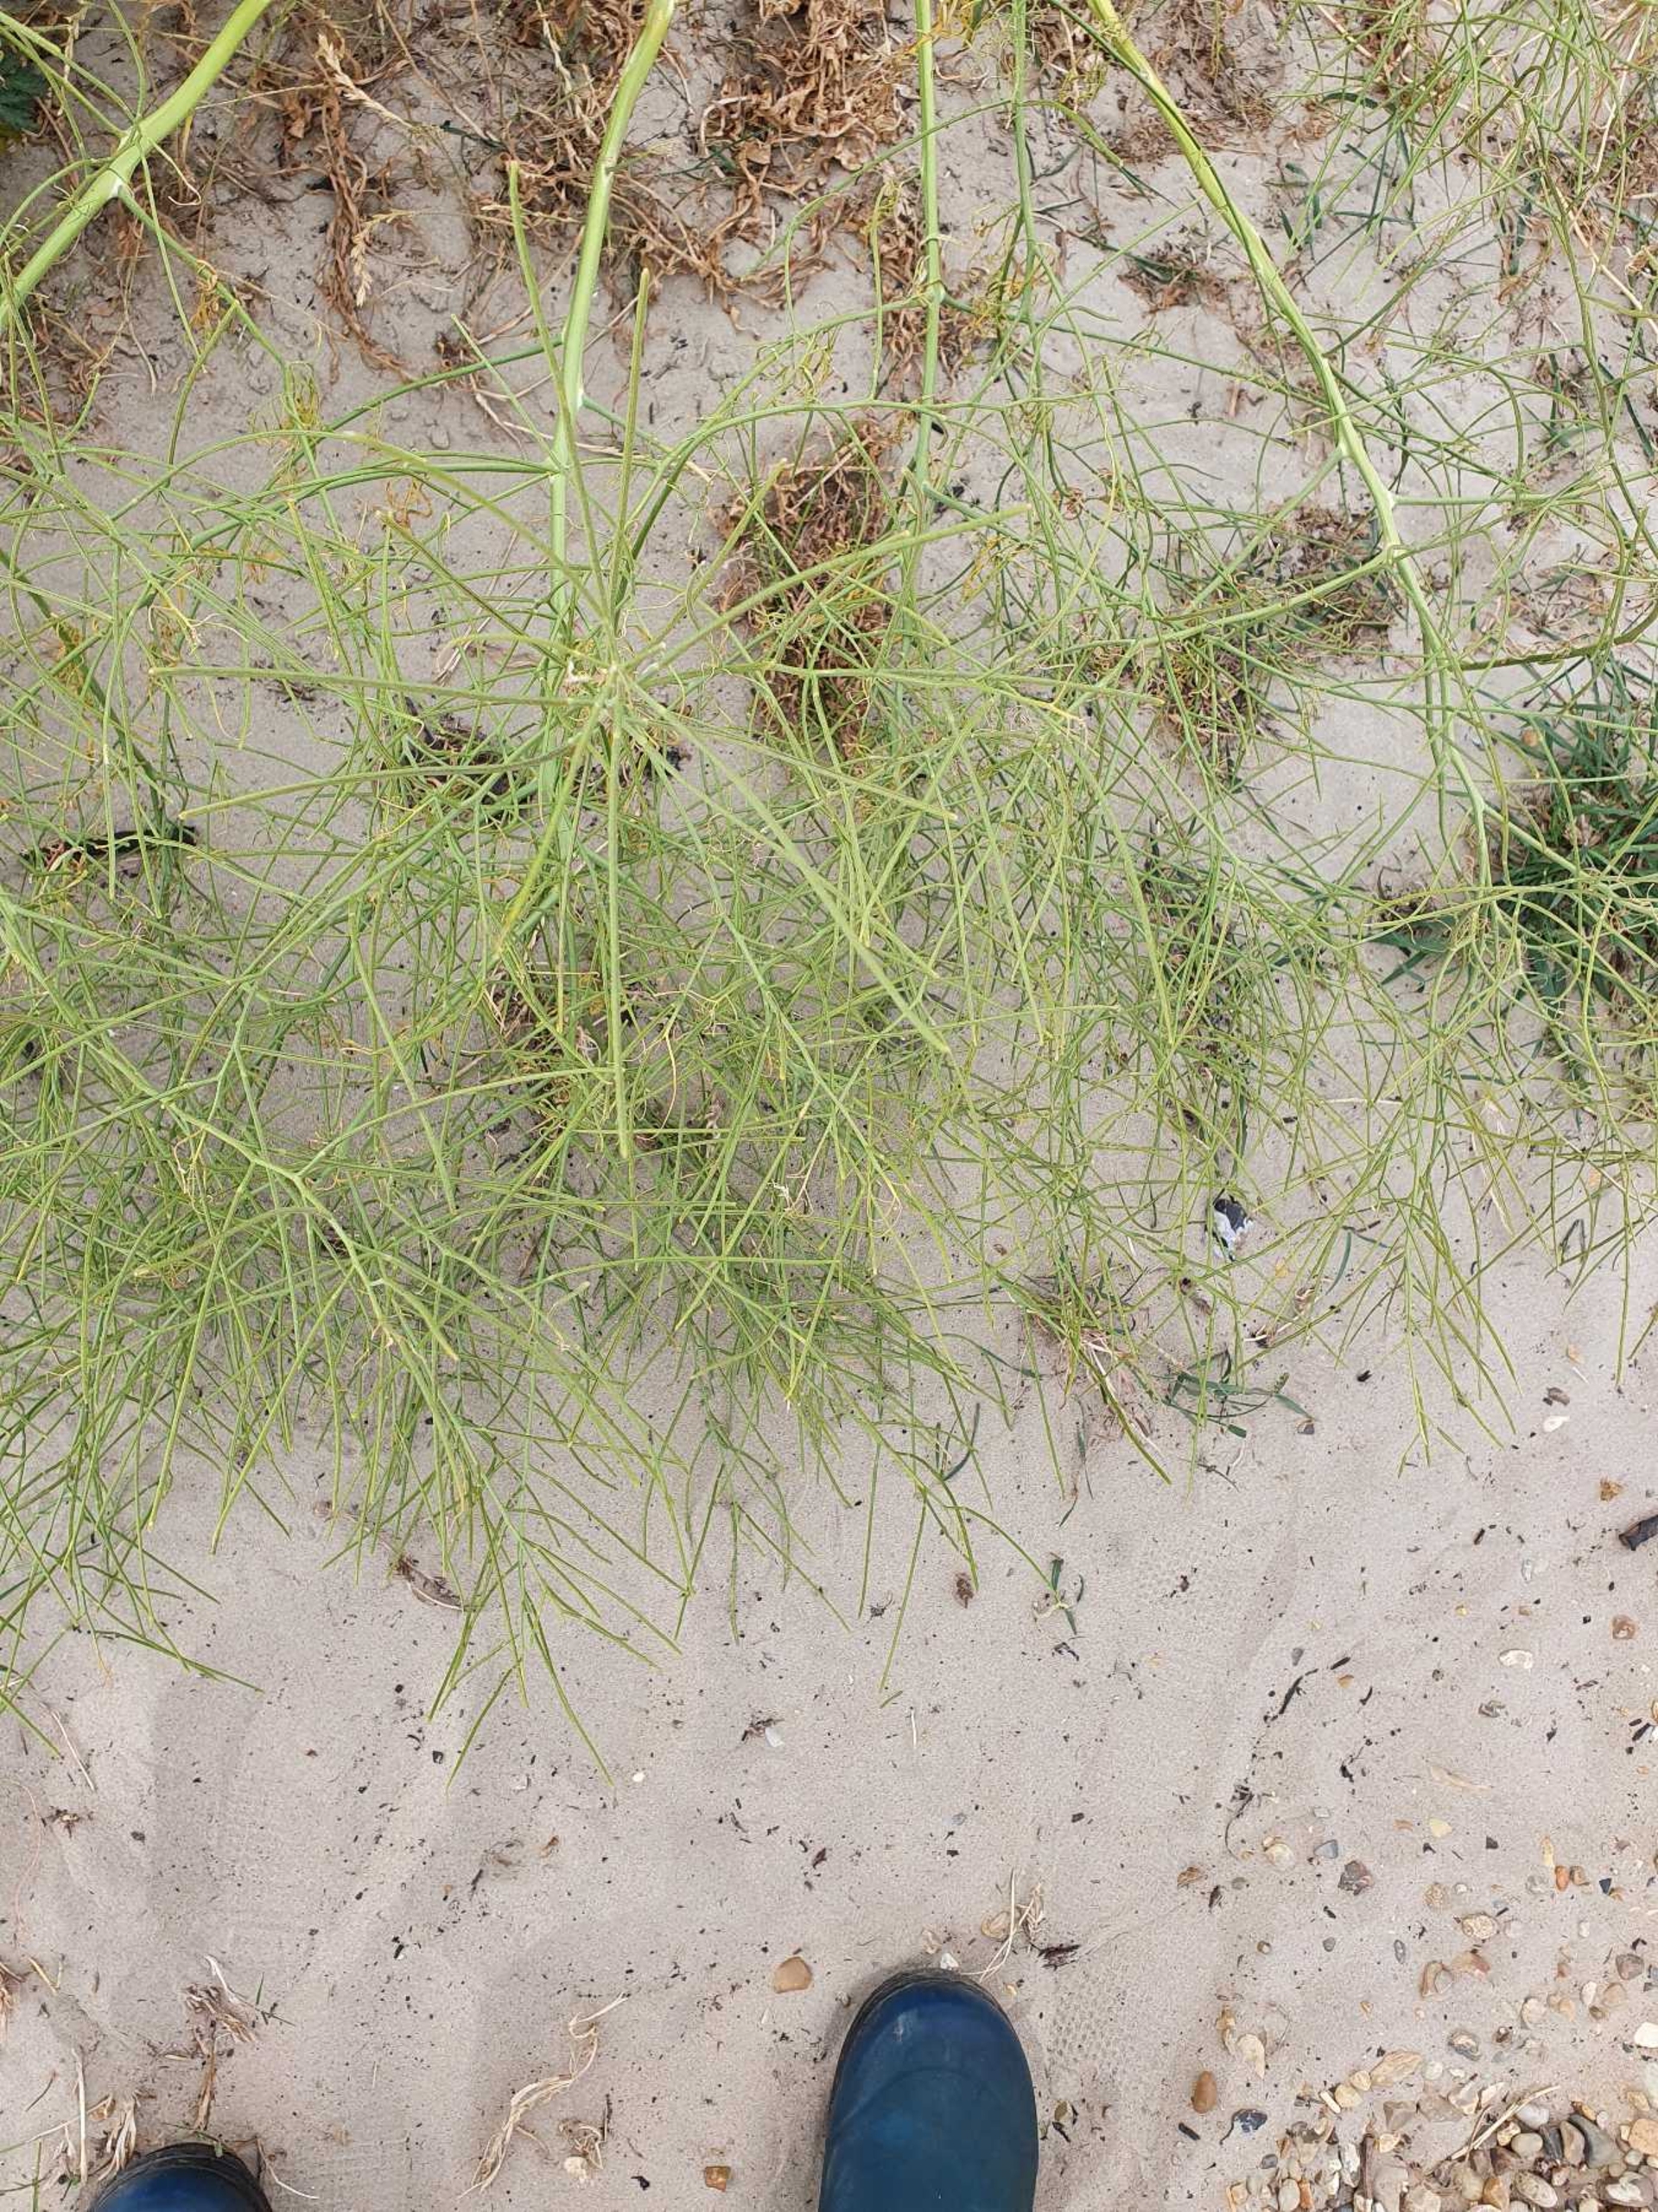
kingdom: Plantae
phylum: Tracheophyta
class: Magnoliopsida
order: Brassicales
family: Brassicaceae
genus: Sisymbrium
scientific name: Sisymbrium altissimum
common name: Ungarsk vejsennep
